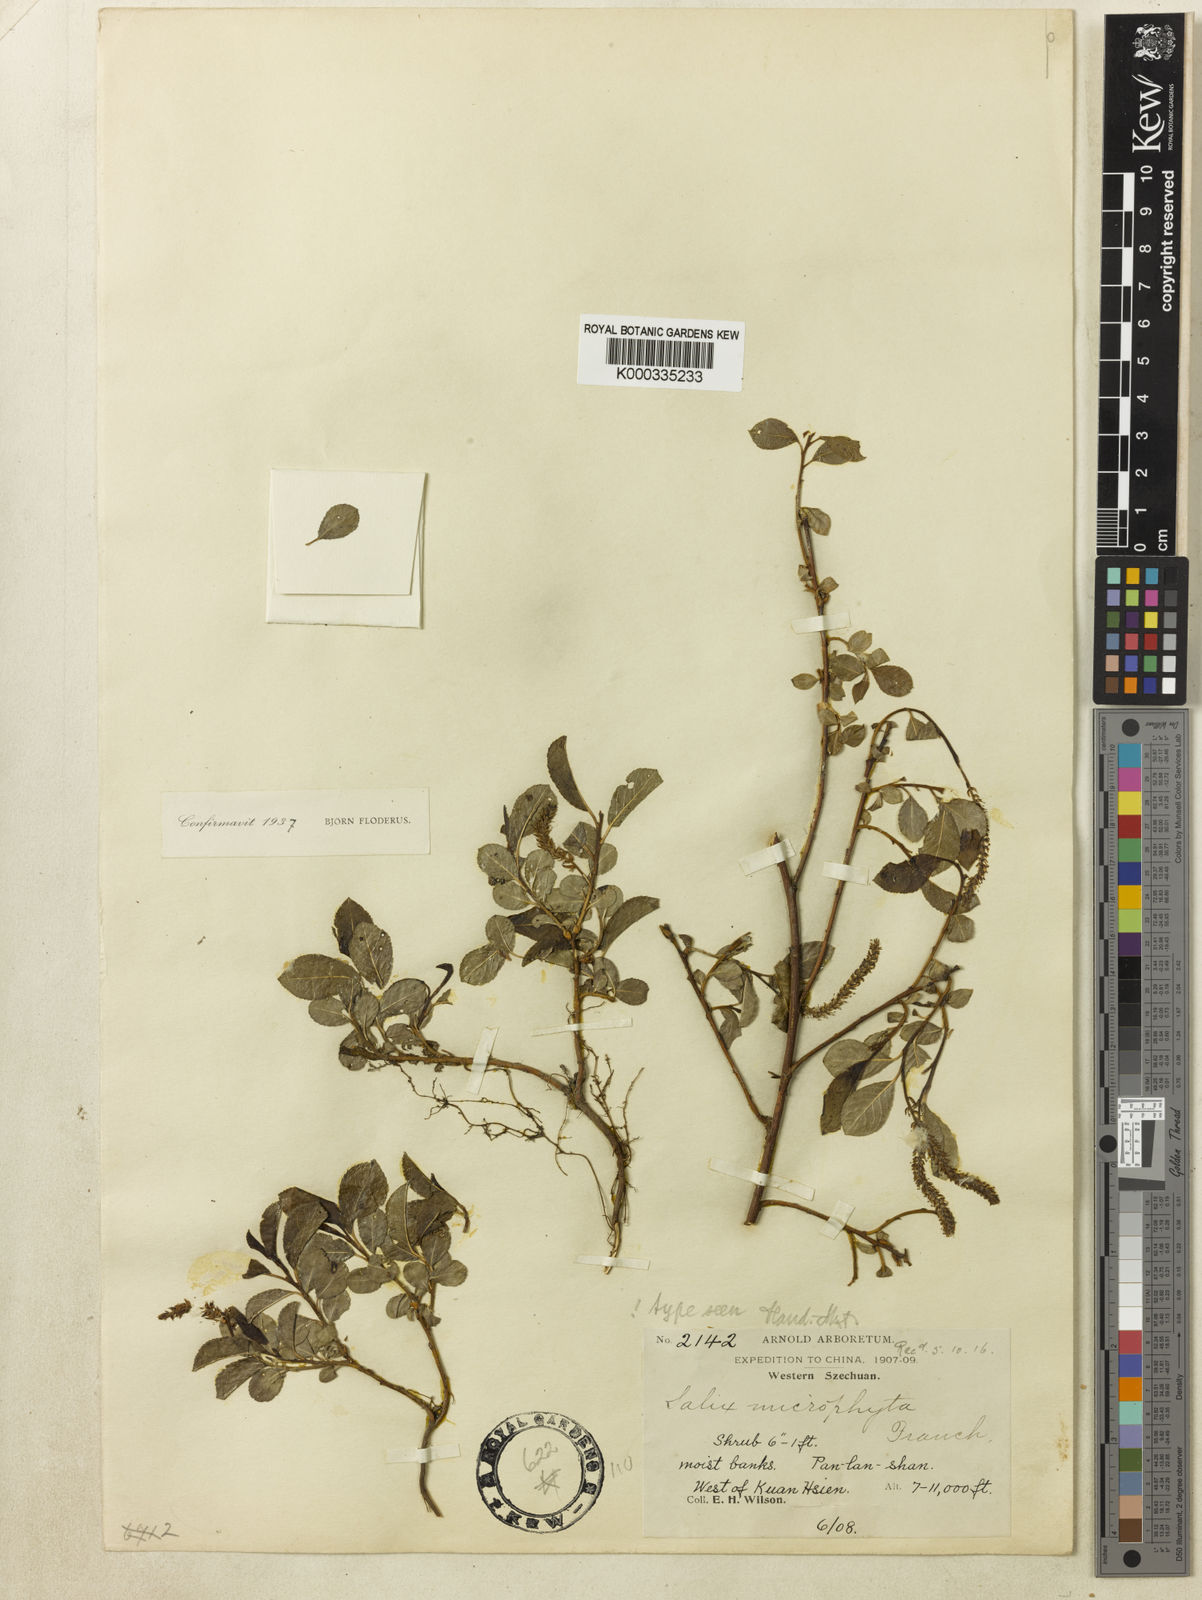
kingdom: Plantae
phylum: Tracheophyta
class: Magnoliopsida
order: Malpighiales
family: Salicaceae
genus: Salix
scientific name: Salix flabellaris
